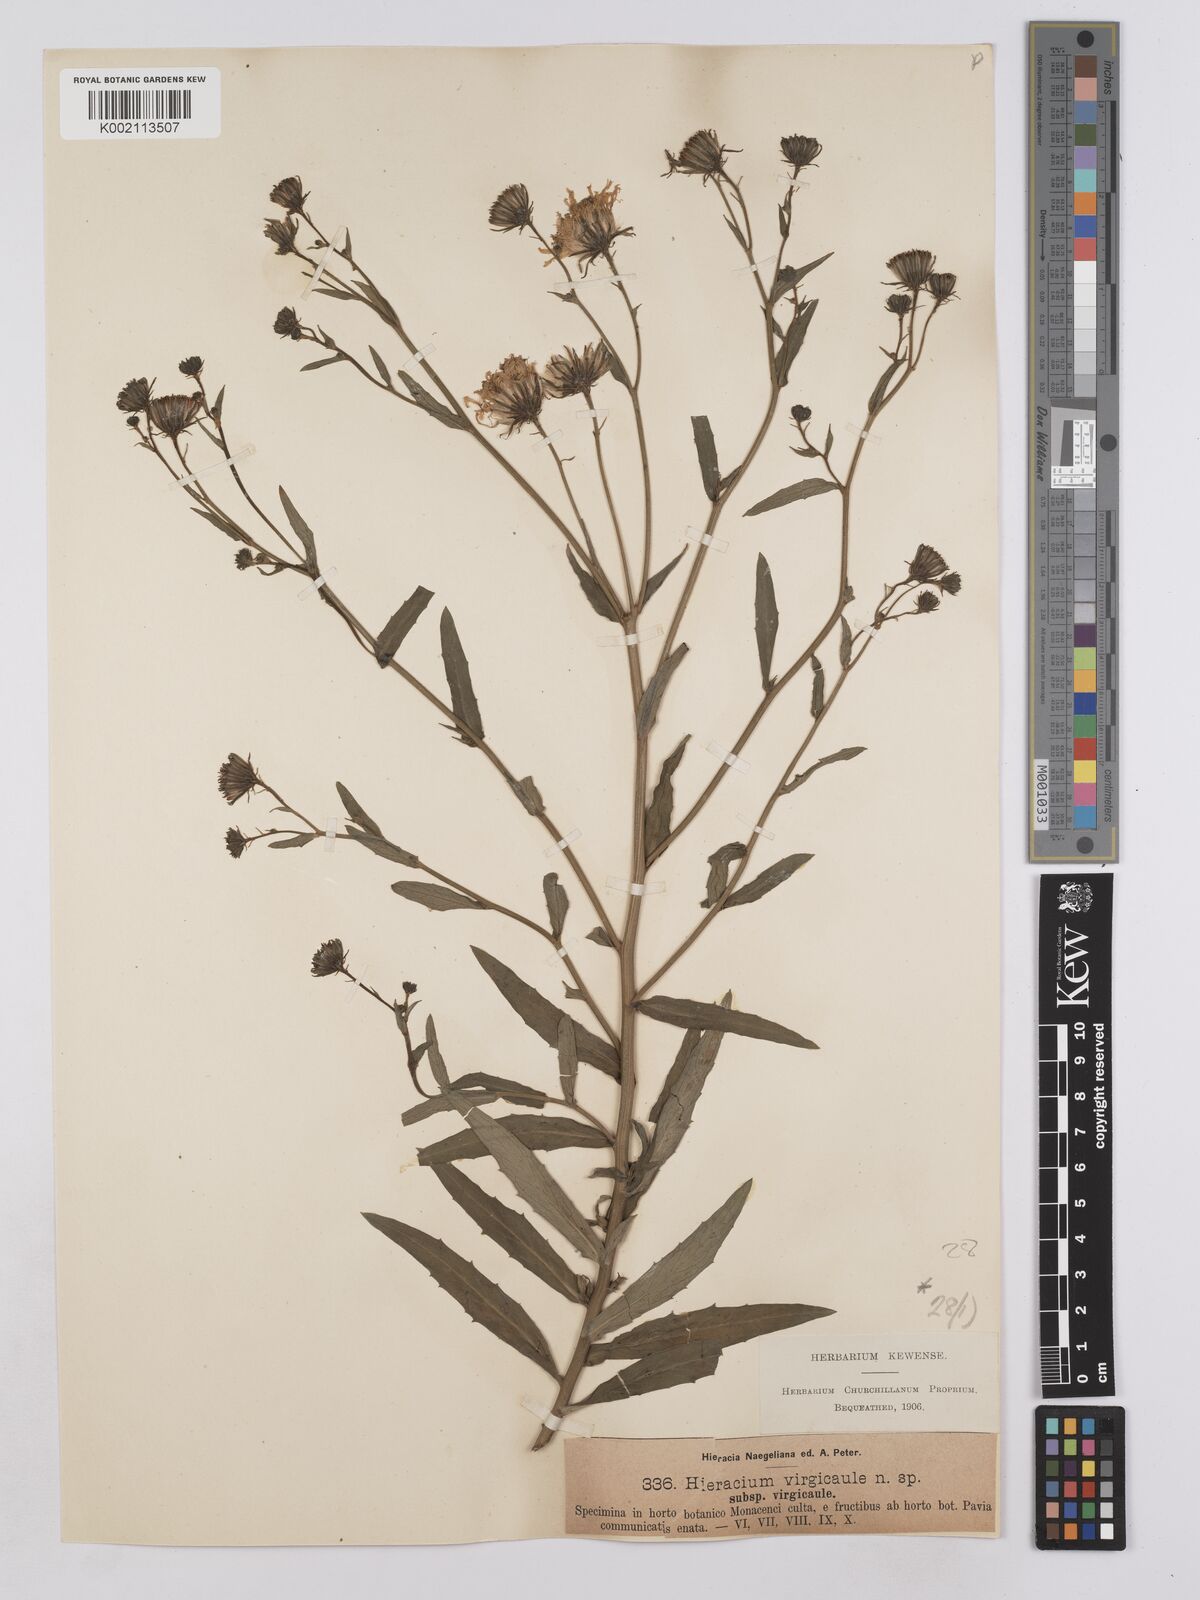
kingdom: Plantae
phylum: Tracheophyta
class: Magnoliopsida
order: Asterales
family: Asteraceae
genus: Hieracium
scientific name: Hieracium virgicaule
